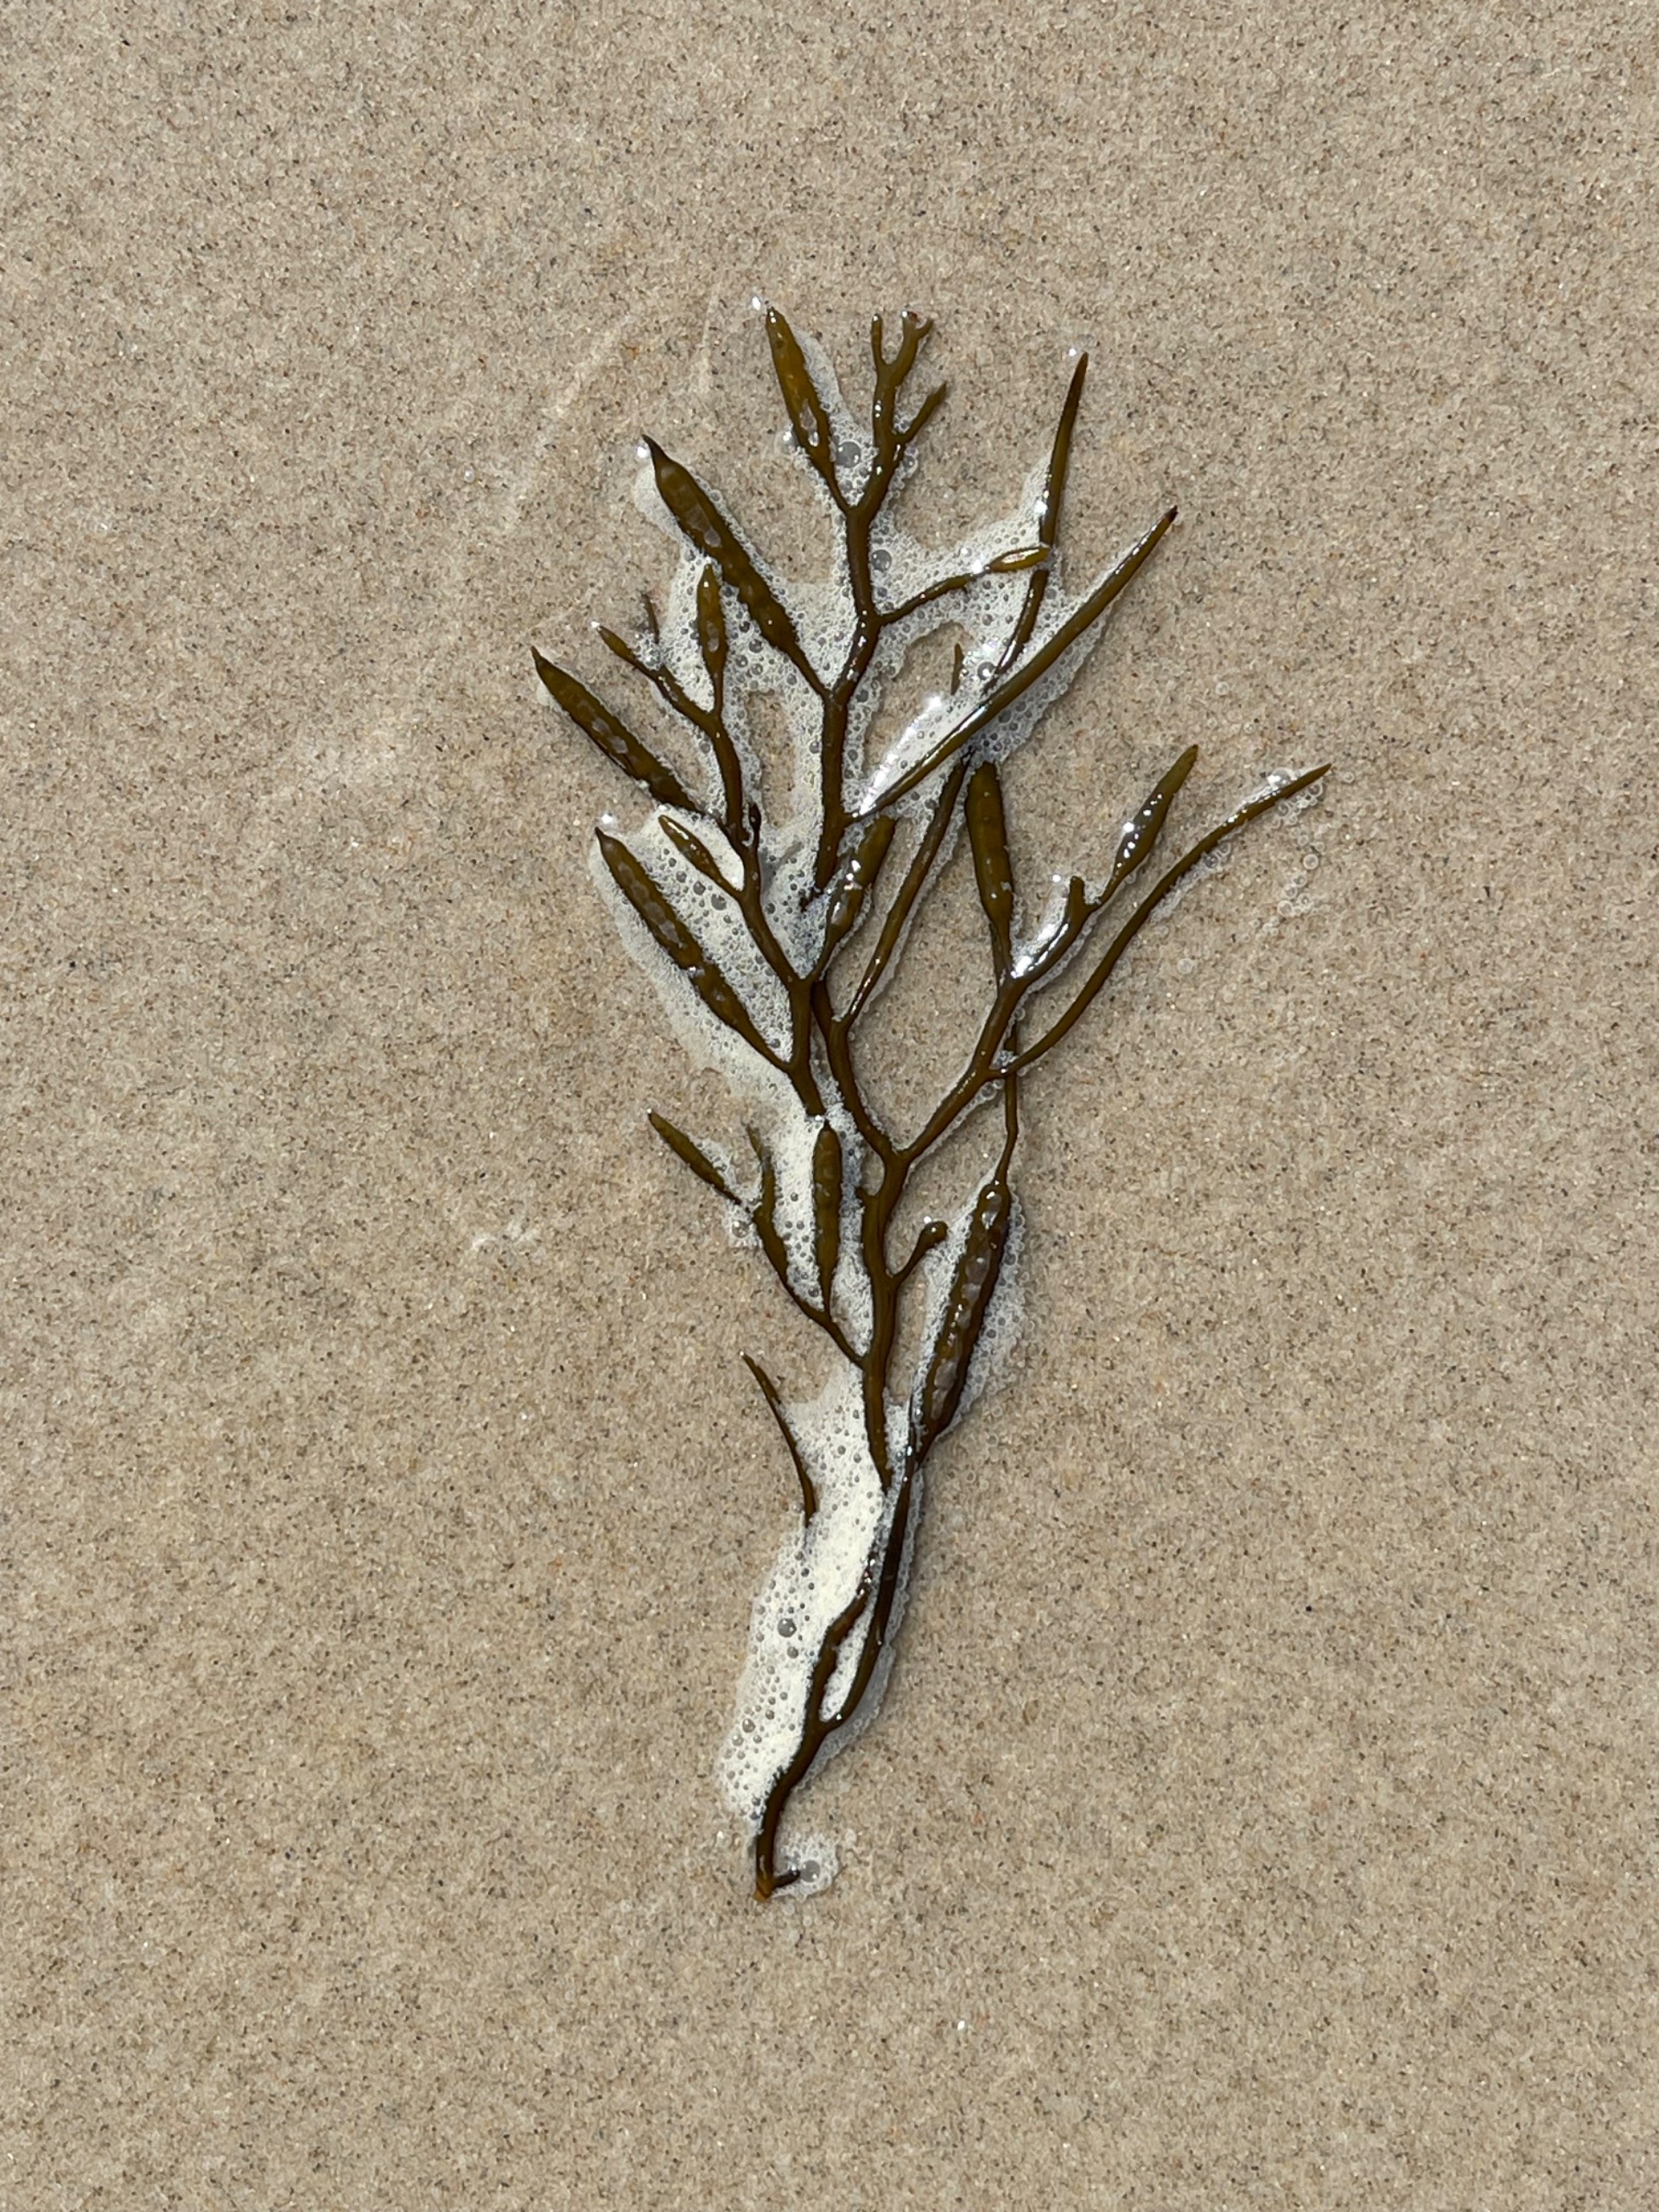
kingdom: Chromista
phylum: Ochrophyta
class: Phaeophyceae
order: Fucales
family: Sargassaceae
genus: Halidrys
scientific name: Halidrys siliquosa
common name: Skulpetang
